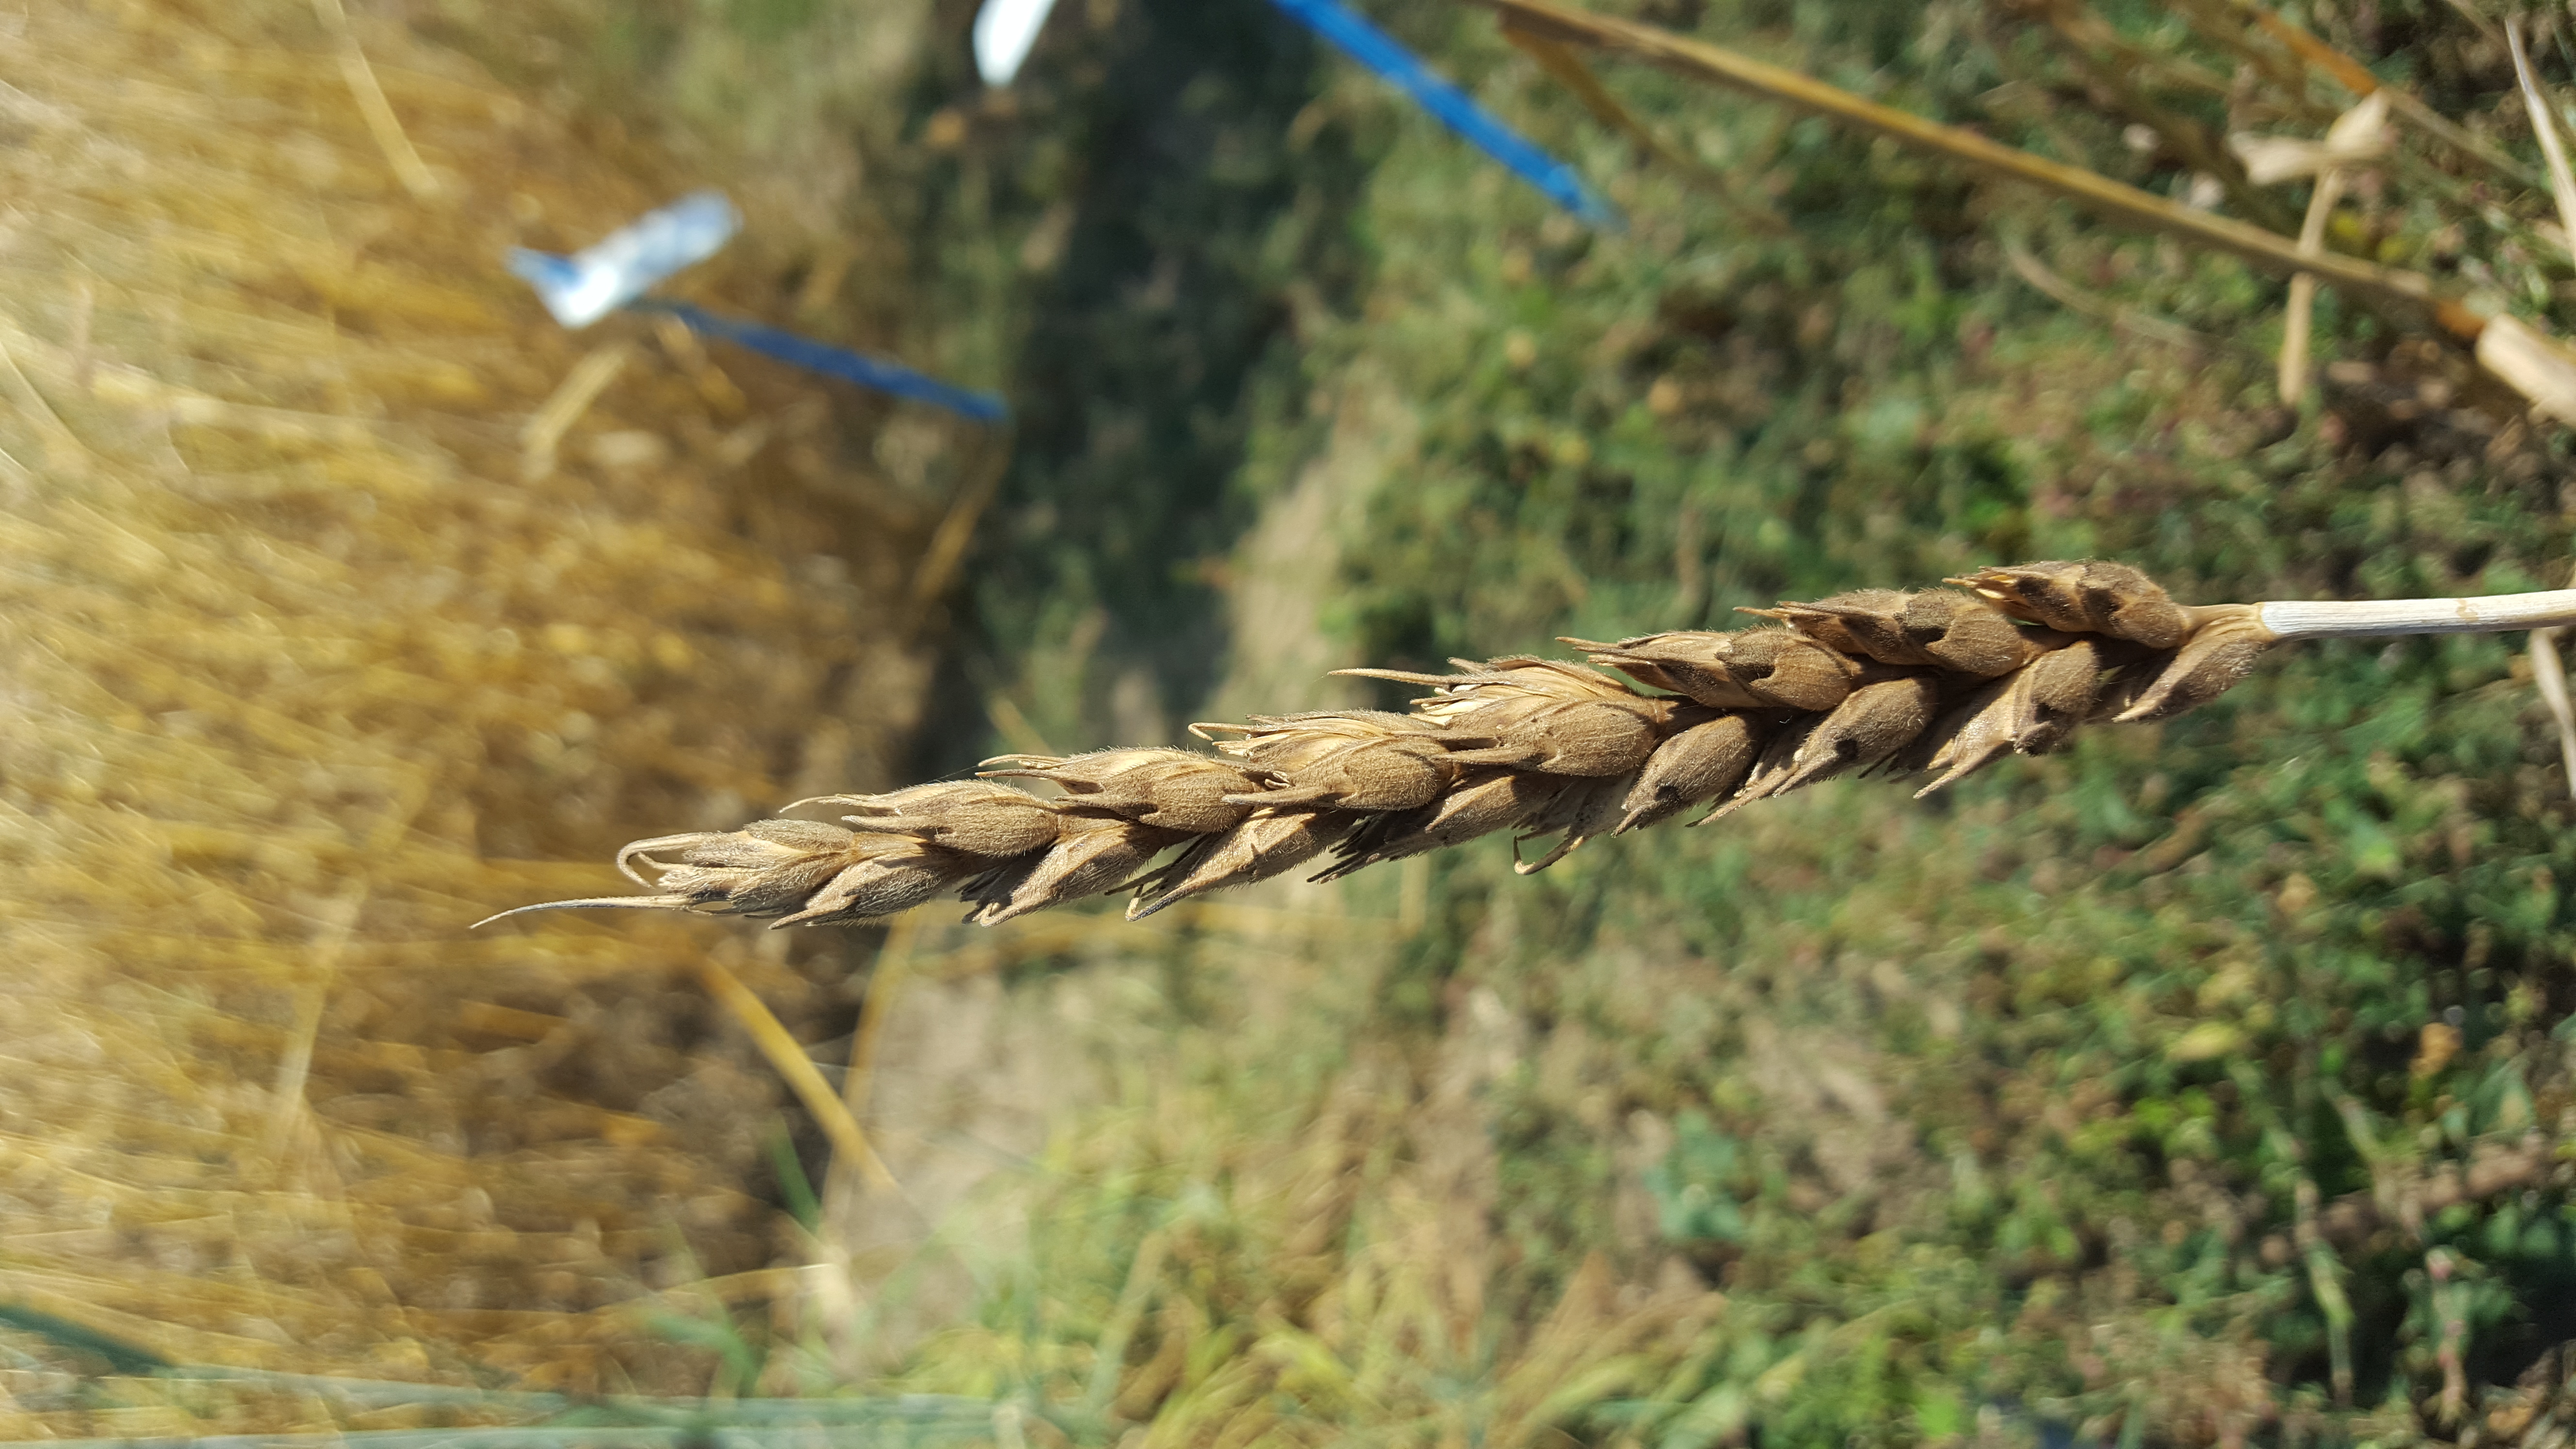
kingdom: Plantae
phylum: Tracheophyta
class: Liliopsida
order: Poales
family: Poaceae
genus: Triticum
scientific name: Triticum aestivum
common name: Common wheat
